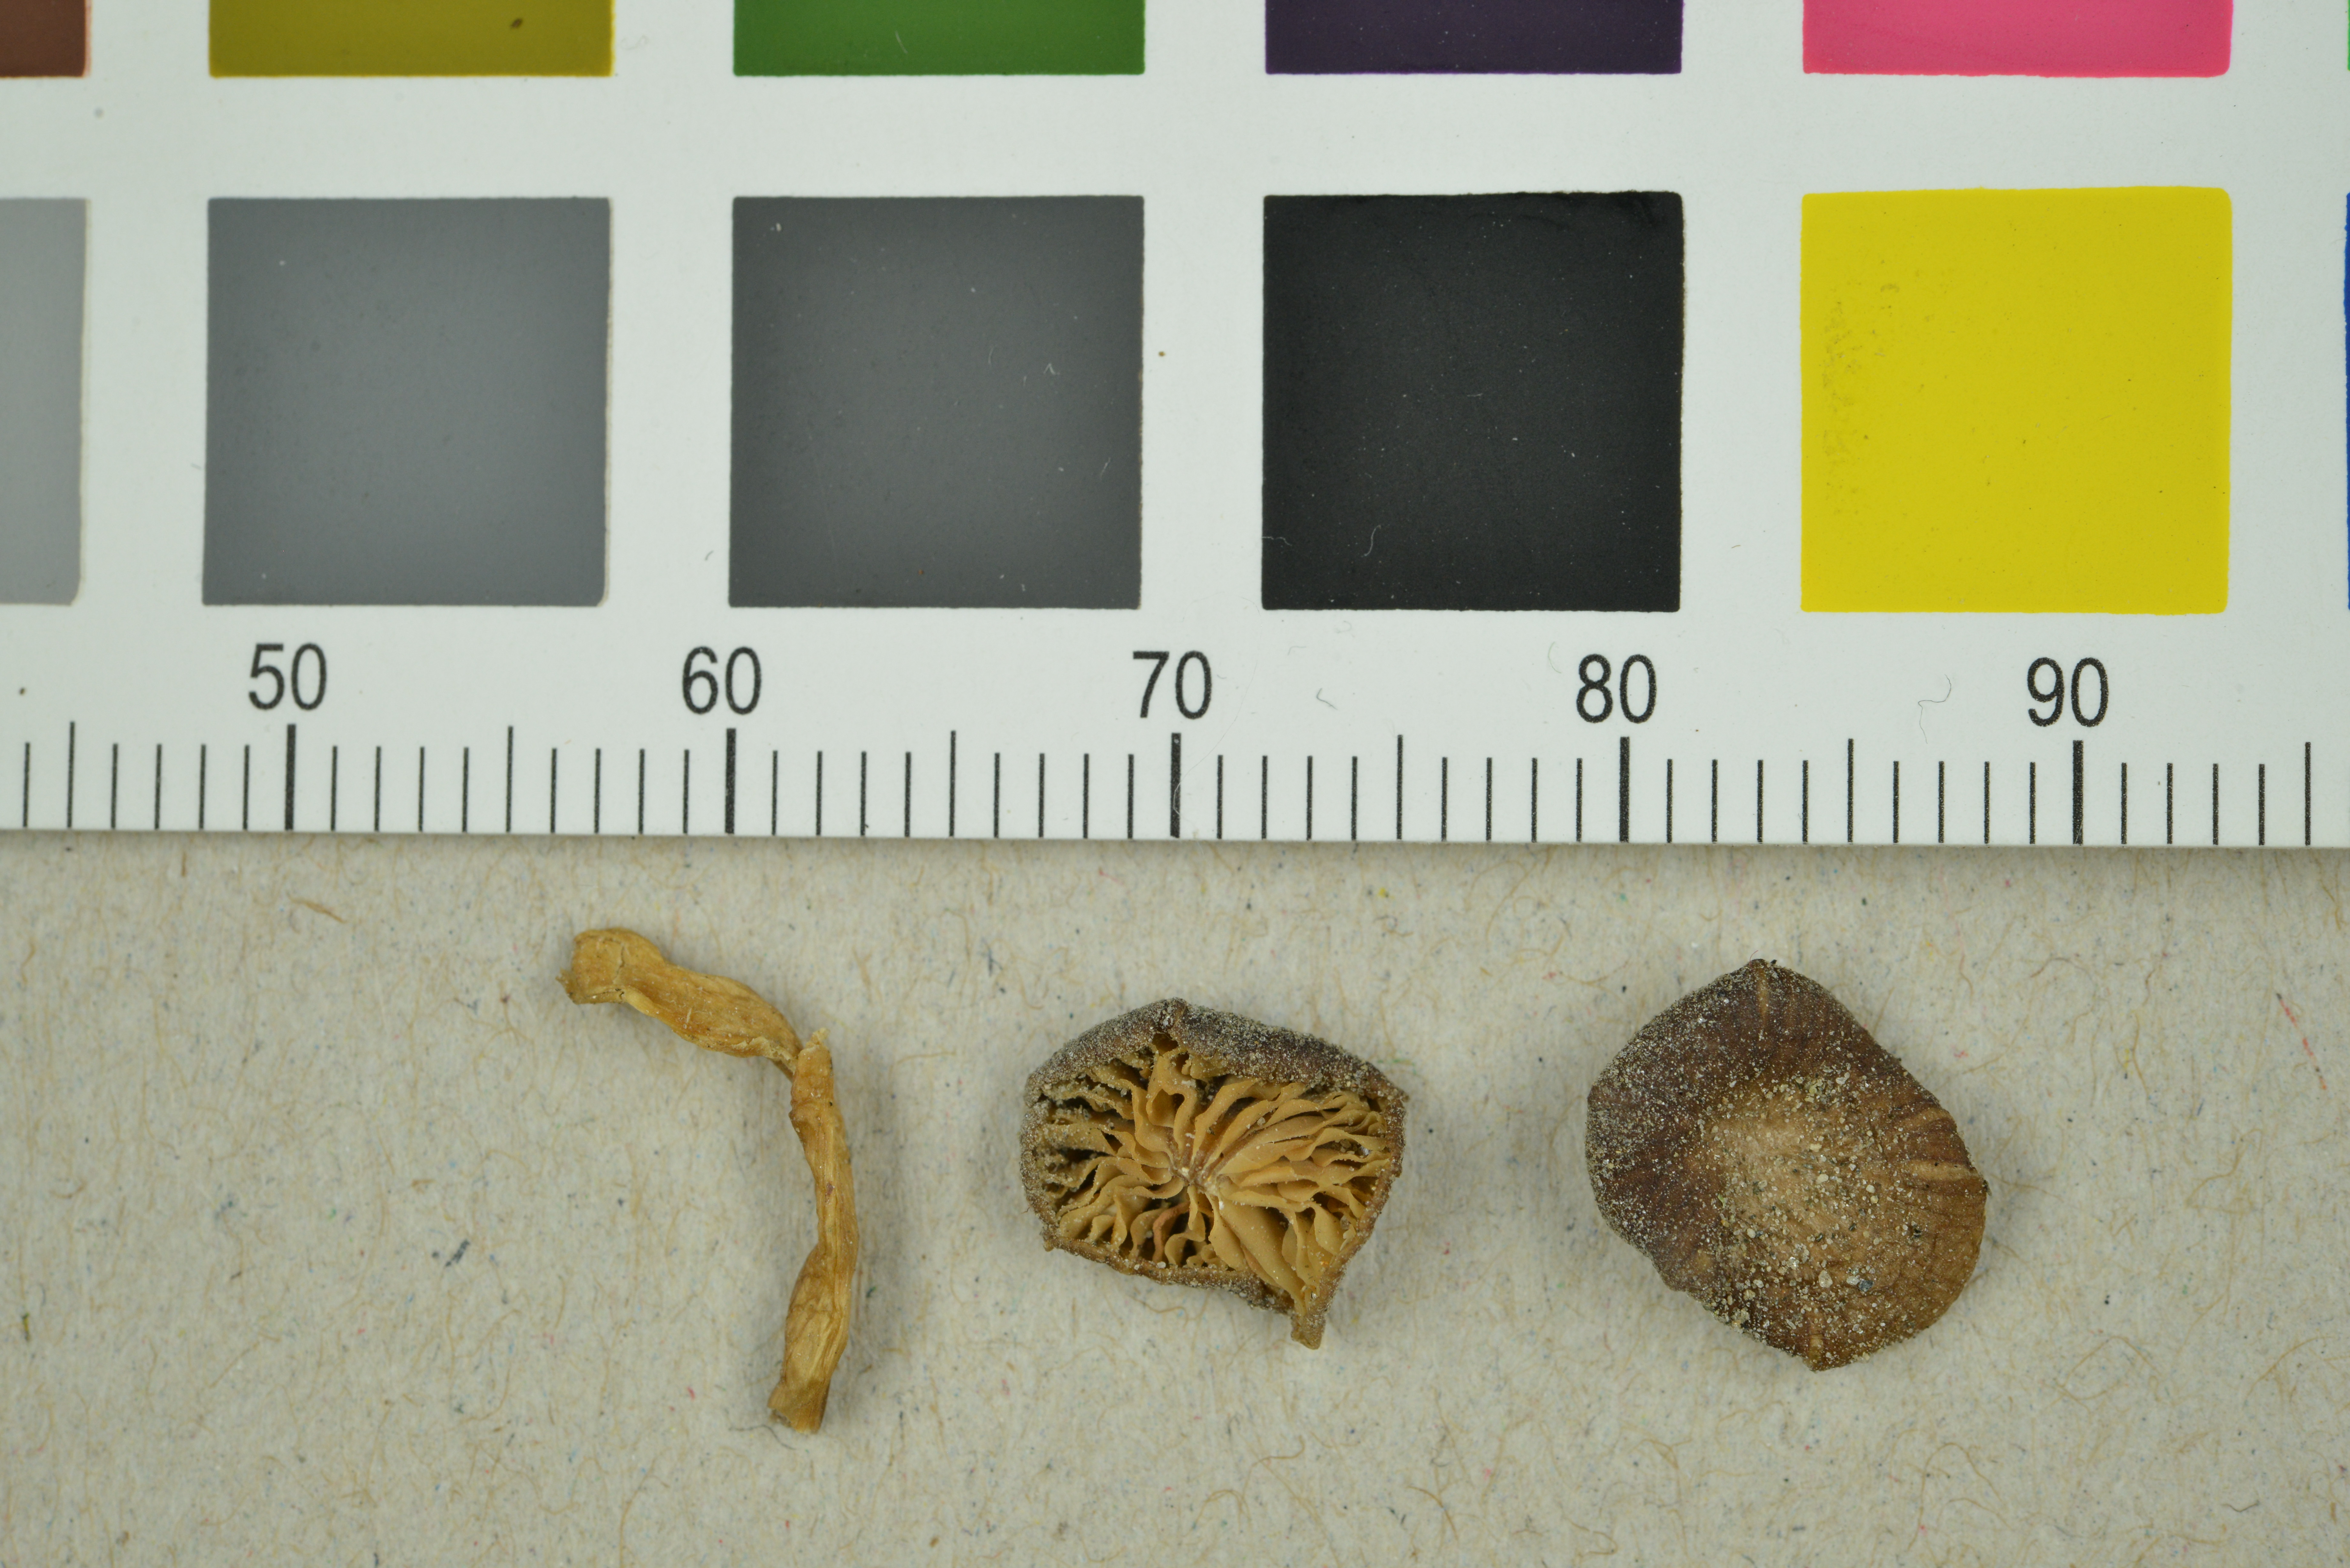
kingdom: Fungi
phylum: Basidiomycota
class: Agaricomycetes
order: Agaricales
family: Entolomataceae
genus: Entoloma
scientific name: Entoloma politum
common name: Nitrous pinkgill
